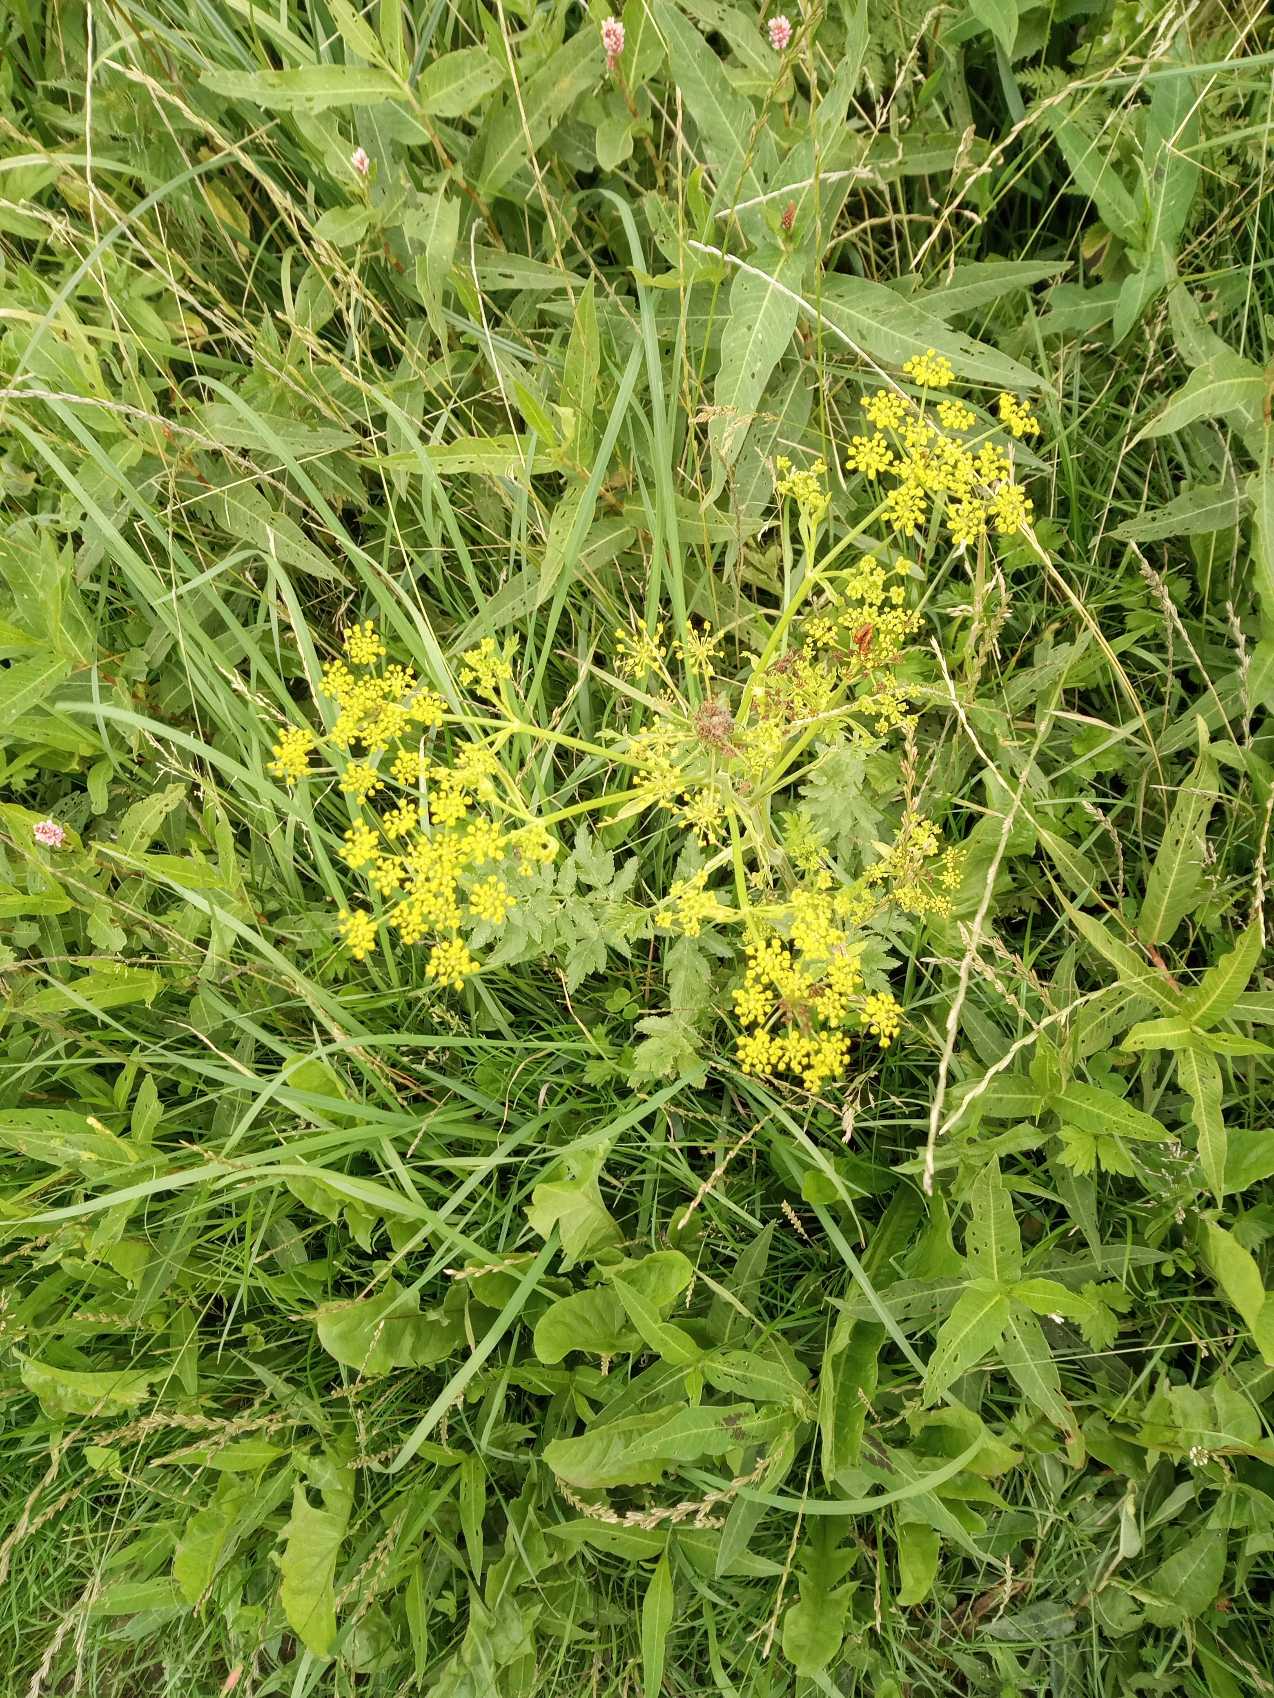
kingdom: Plantae
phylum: Tracheophyta
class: Magnoliopsida
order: Apiales
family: Apiaceae
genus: Pastinaca
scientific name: Pastinaca sativa
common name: Pastinak
